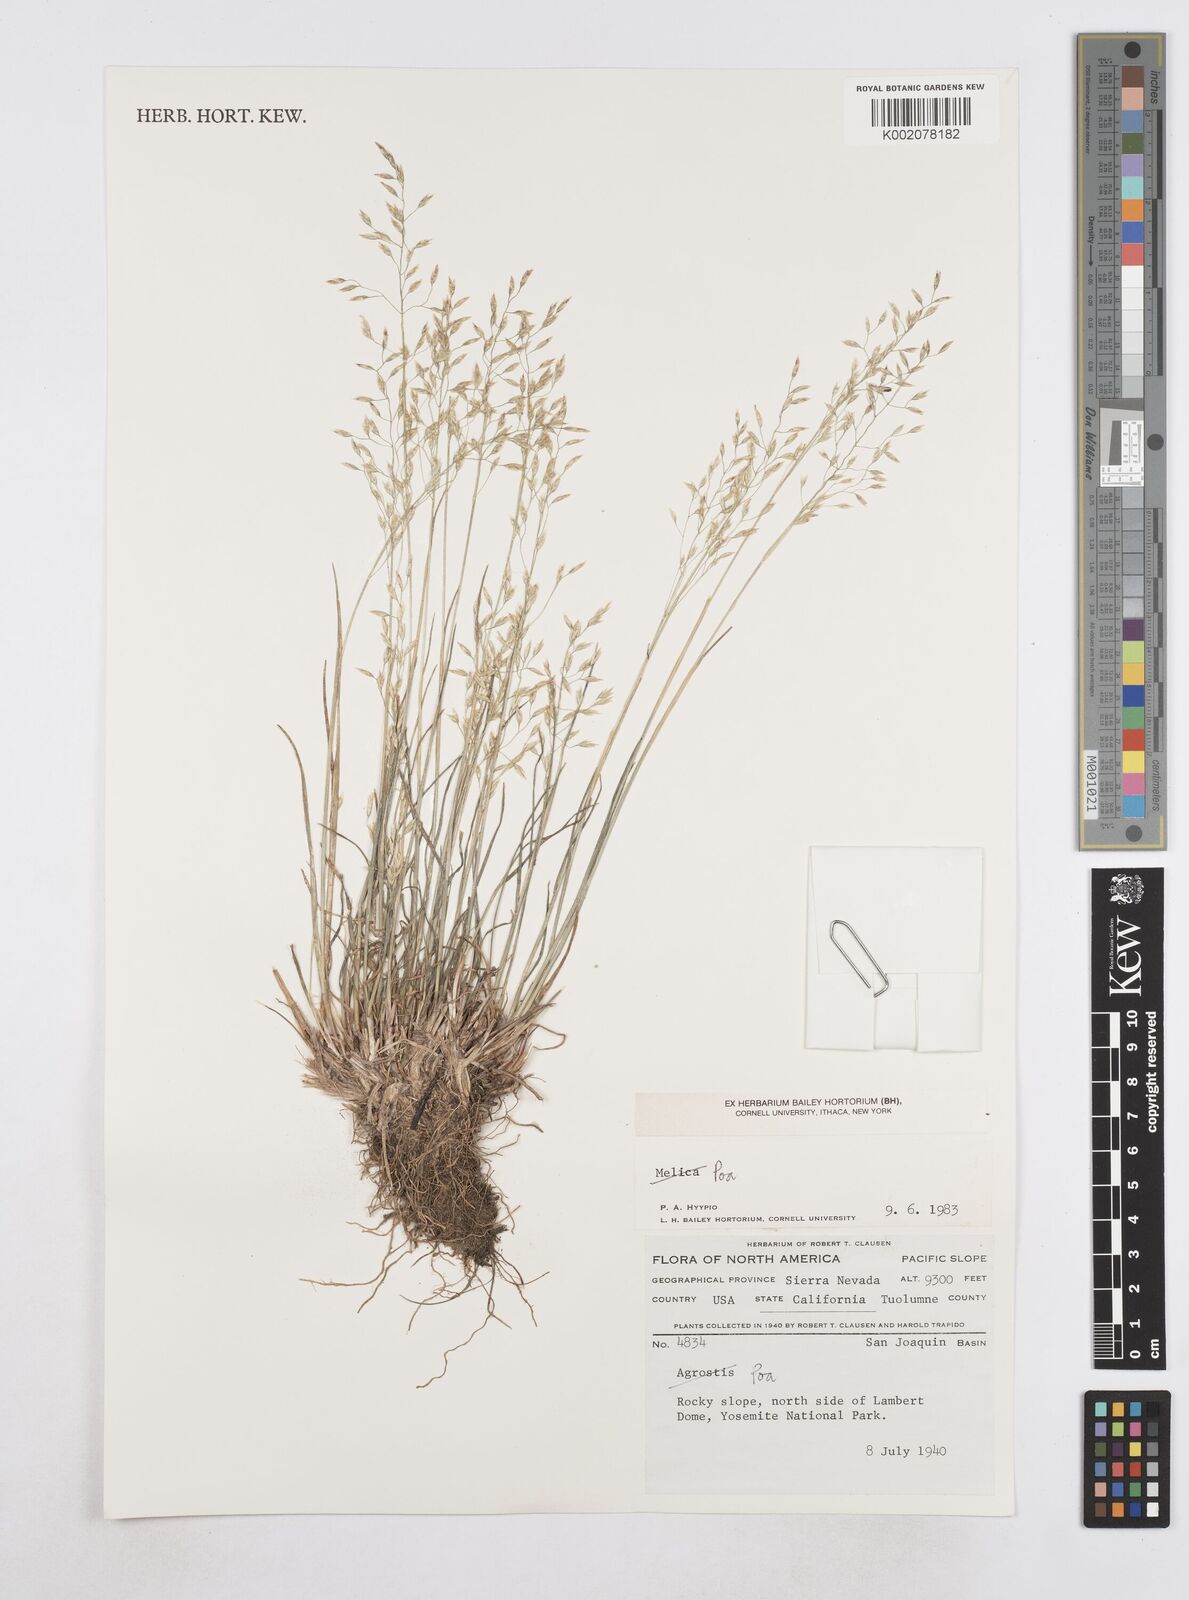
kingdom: Plantae
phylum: Tracheophyta
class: Liliopsida
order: Poales
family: Poaceae
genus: Poa
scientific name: Poa
